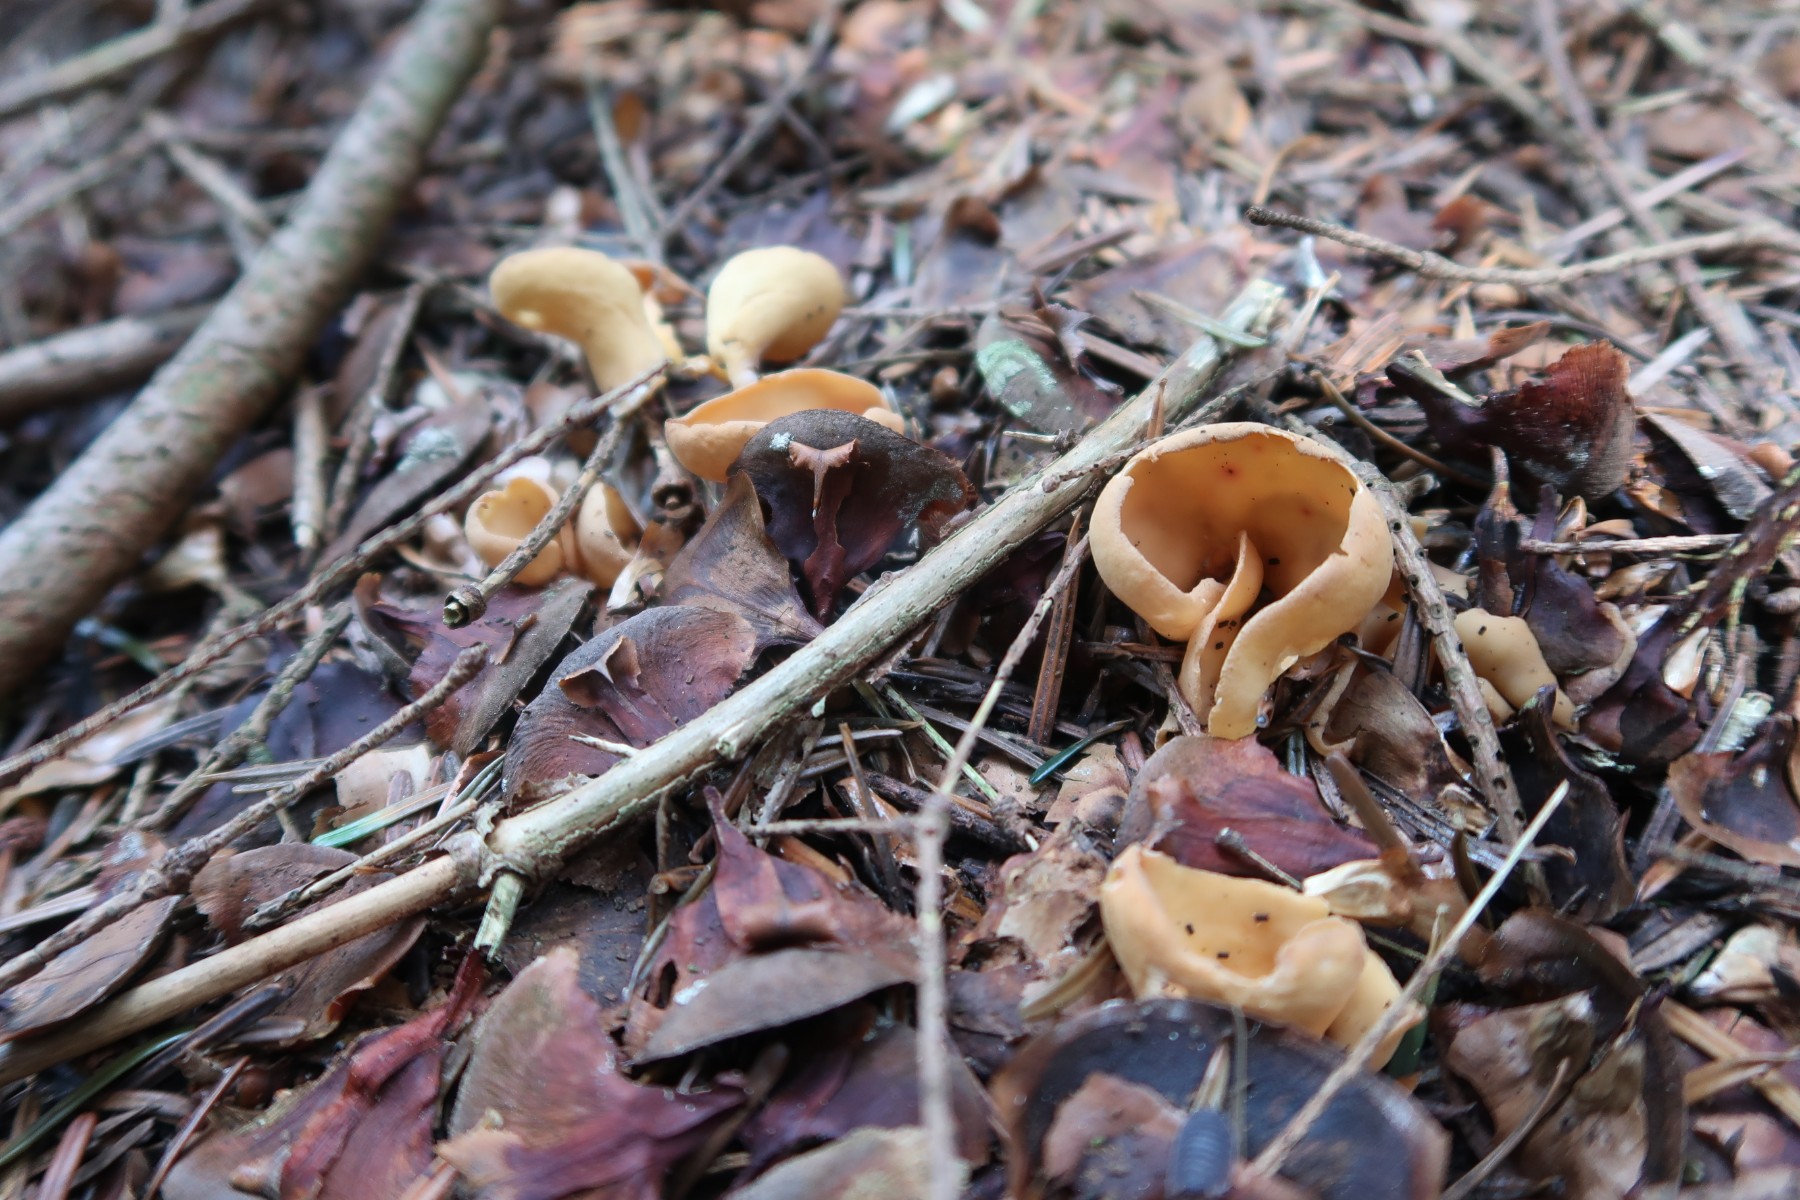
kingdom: Fungi
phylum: Ascomycota
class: Pezizomycetes
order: Pezizales
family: Otideaceae
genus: Otidea
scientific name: Otidea onotica
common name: æsel-ørebæger
